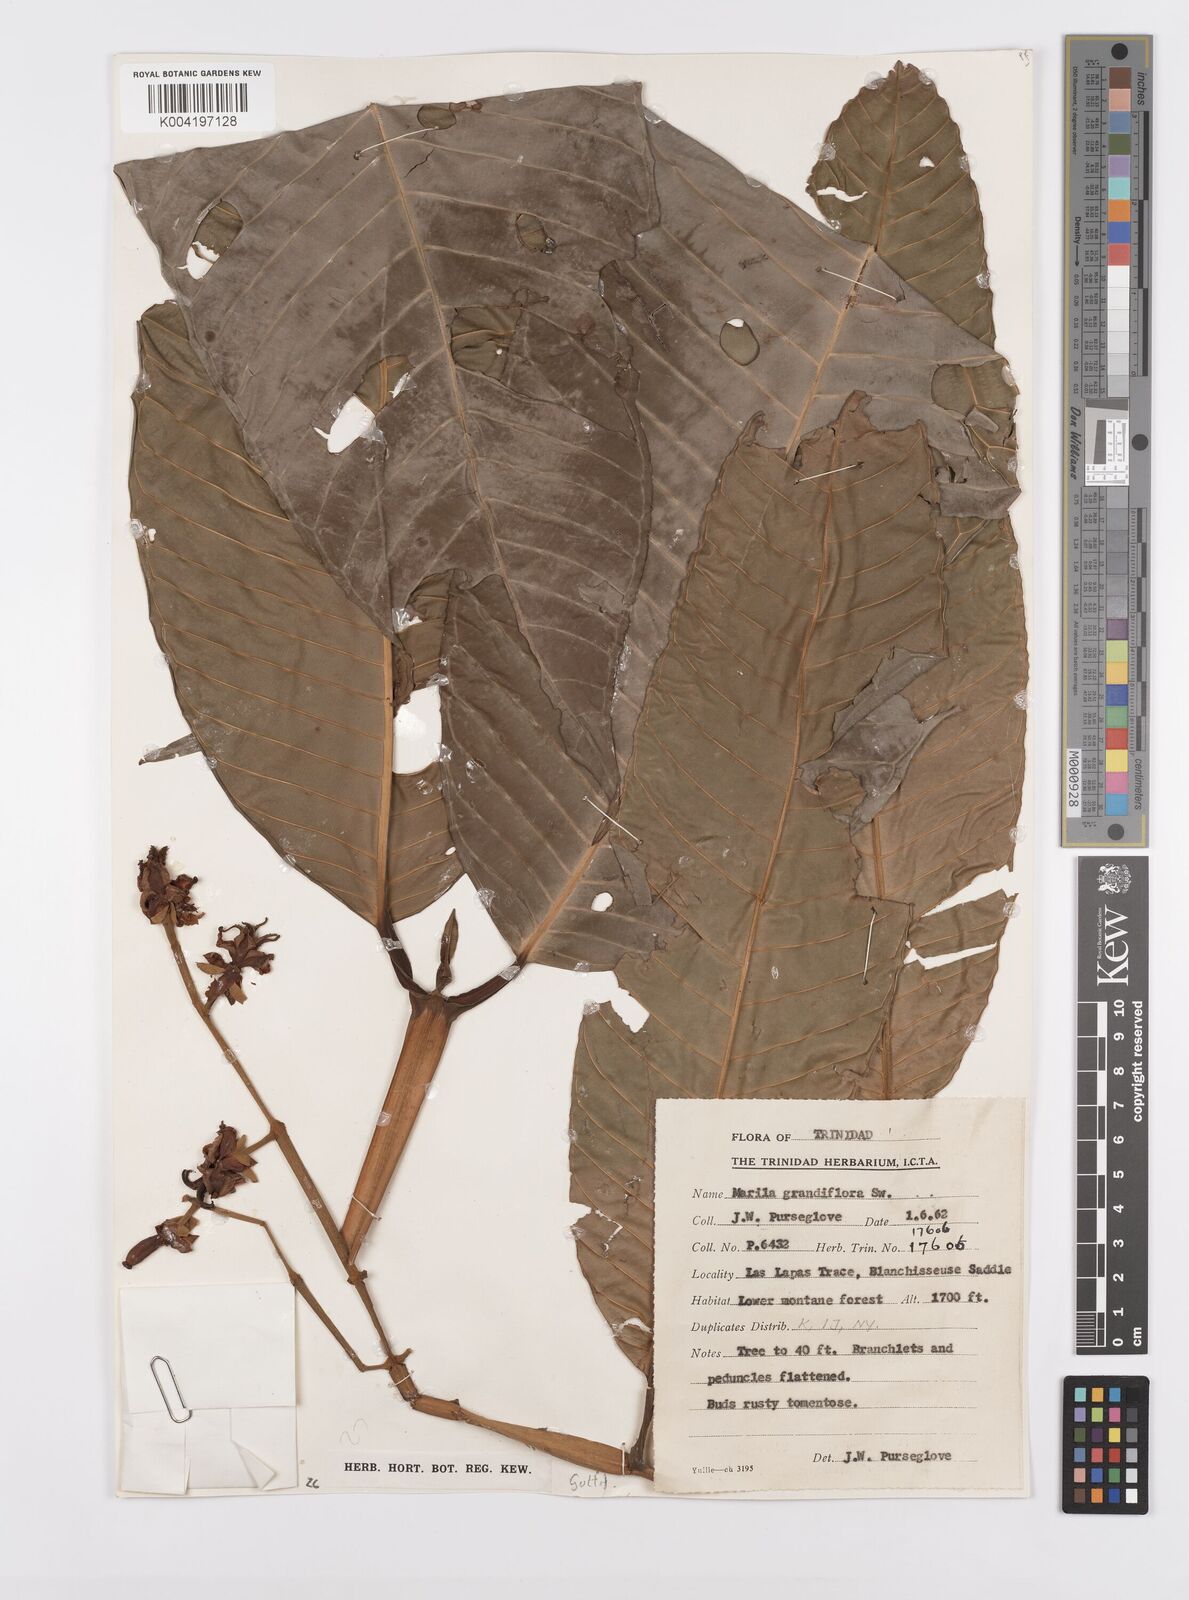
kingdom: Plantae
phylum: Tracheophyta
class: Magnoliopsida
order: Malpighiales
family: Calophyllaceae
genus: Marila
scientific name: Marila grandiflora
